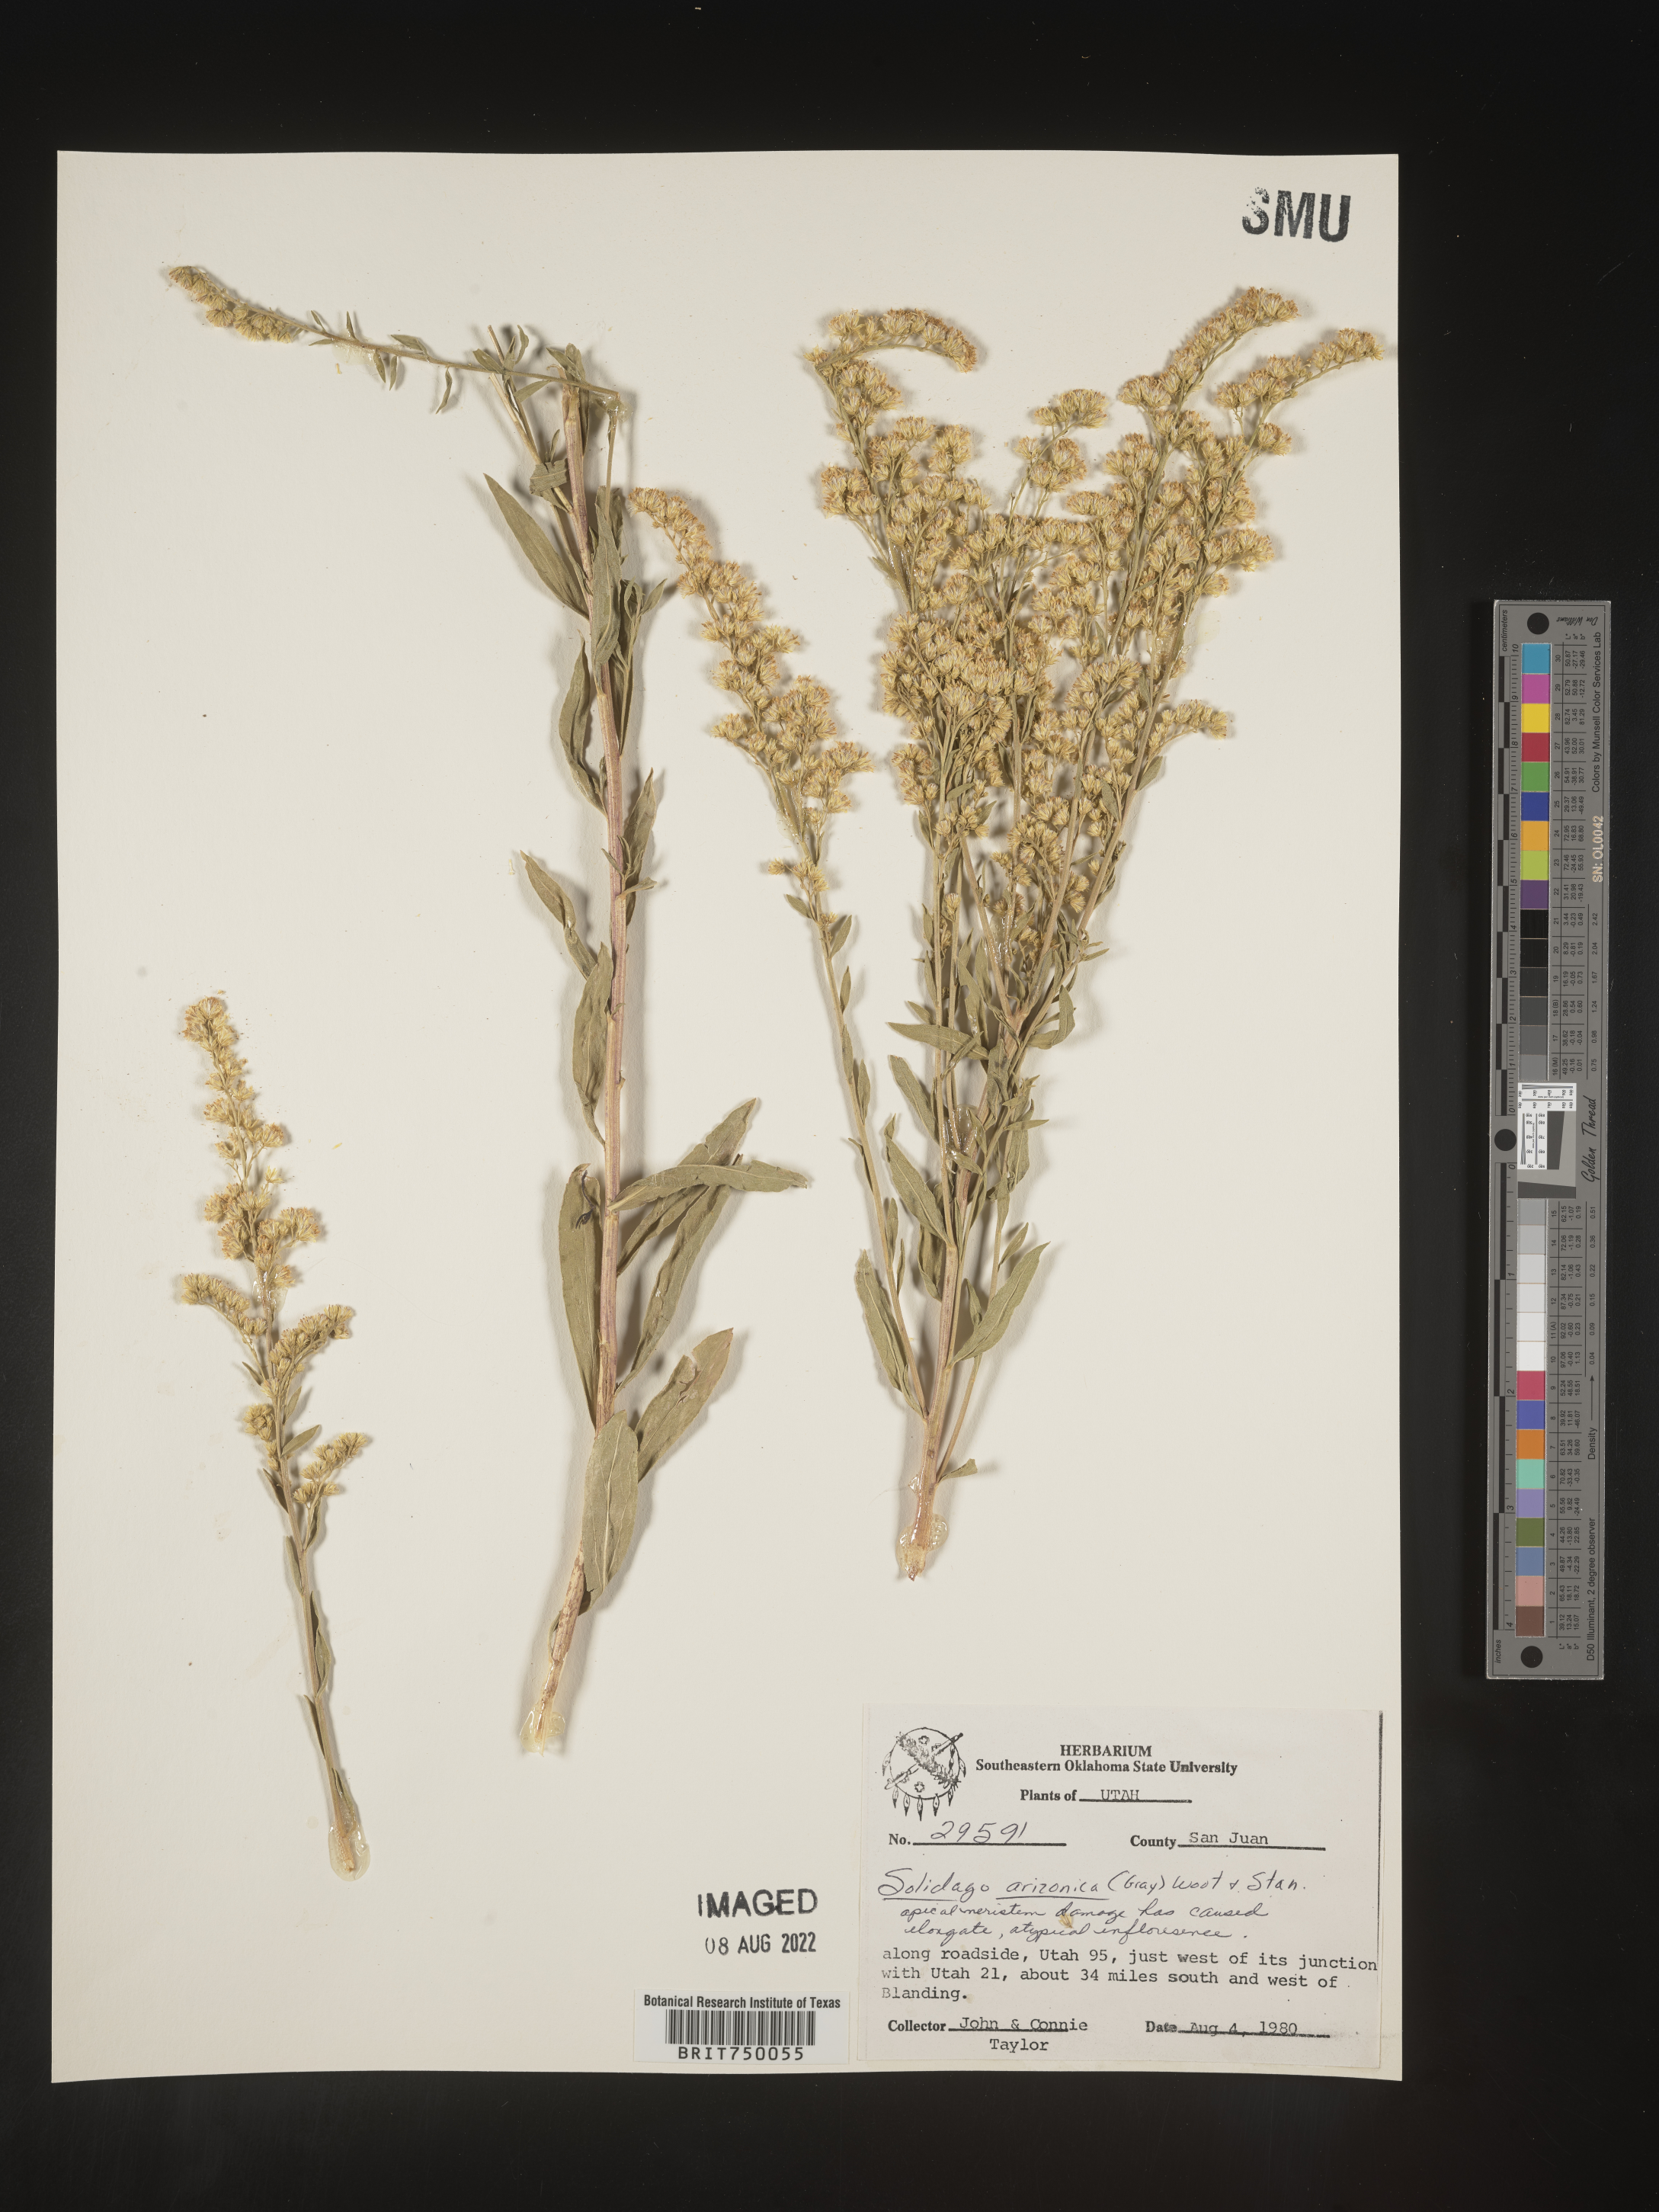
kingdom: Plantae
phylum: Tracheophyta
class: Magnoliopsida
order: Asterales
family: Asteraceae
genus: Solidago
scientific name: Solidago garrettii
